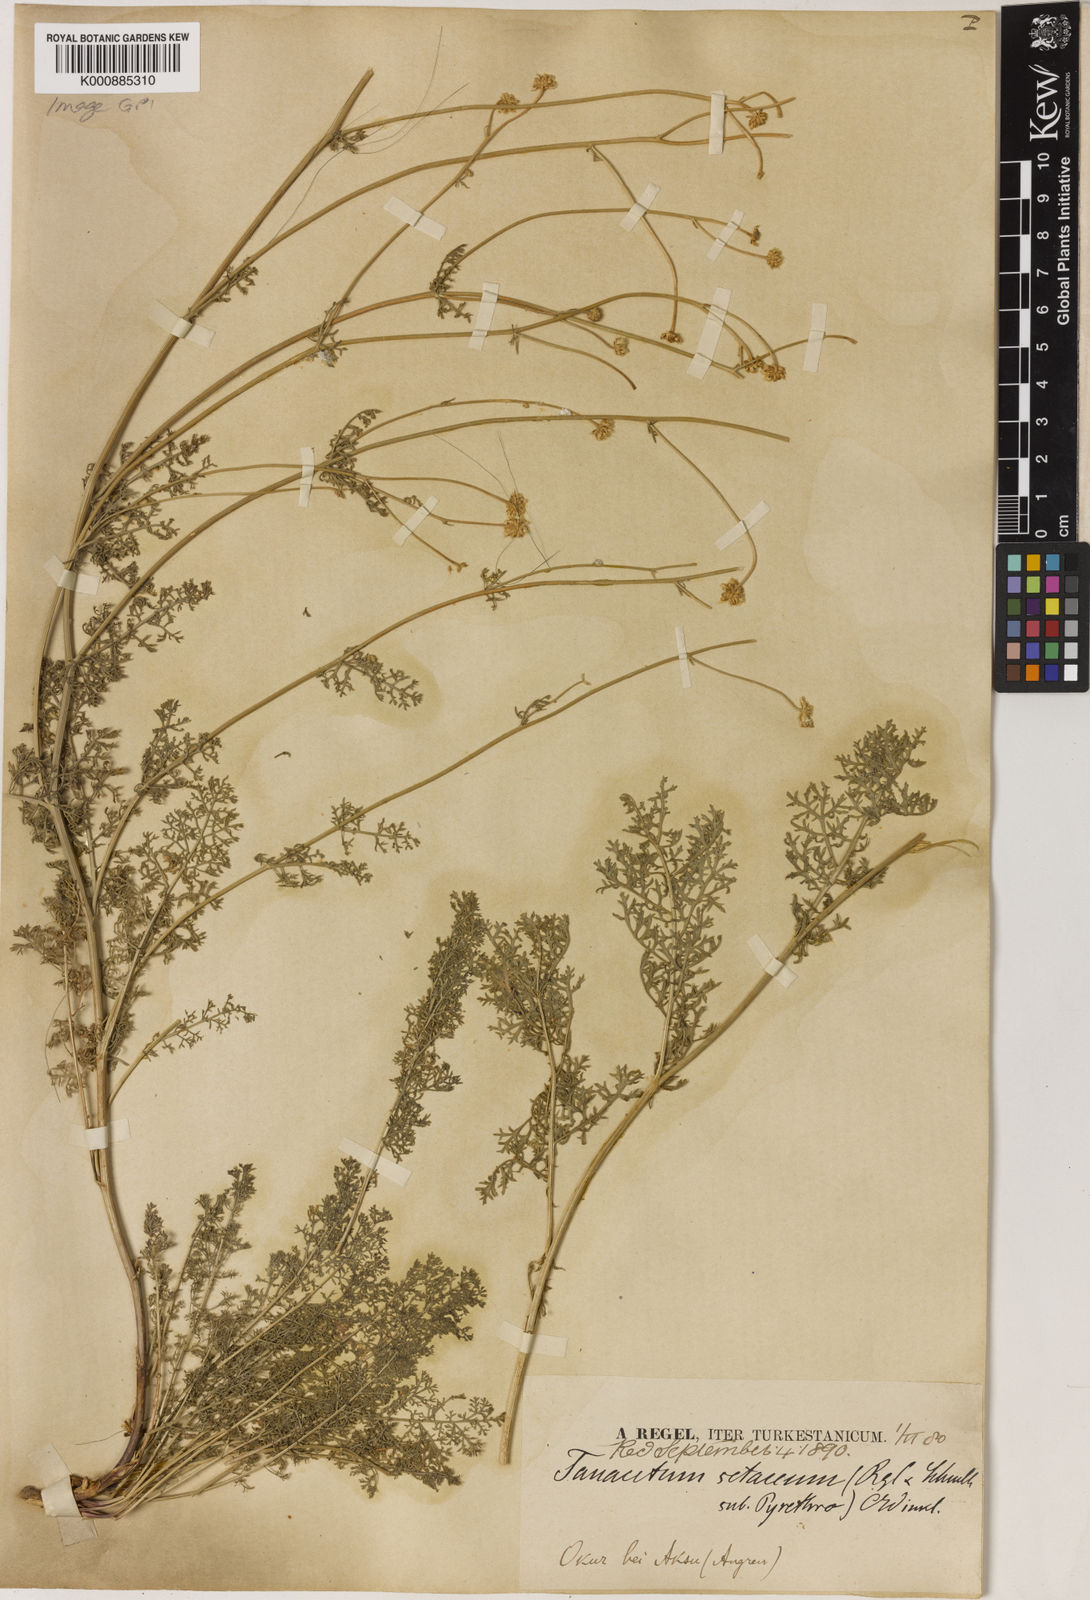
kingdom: Plantae
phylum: Tracheophyta
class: Magnoliopsida
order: Asterales
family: Asteraceae
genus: Tanacetopsis
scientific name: Tanacetopsis
